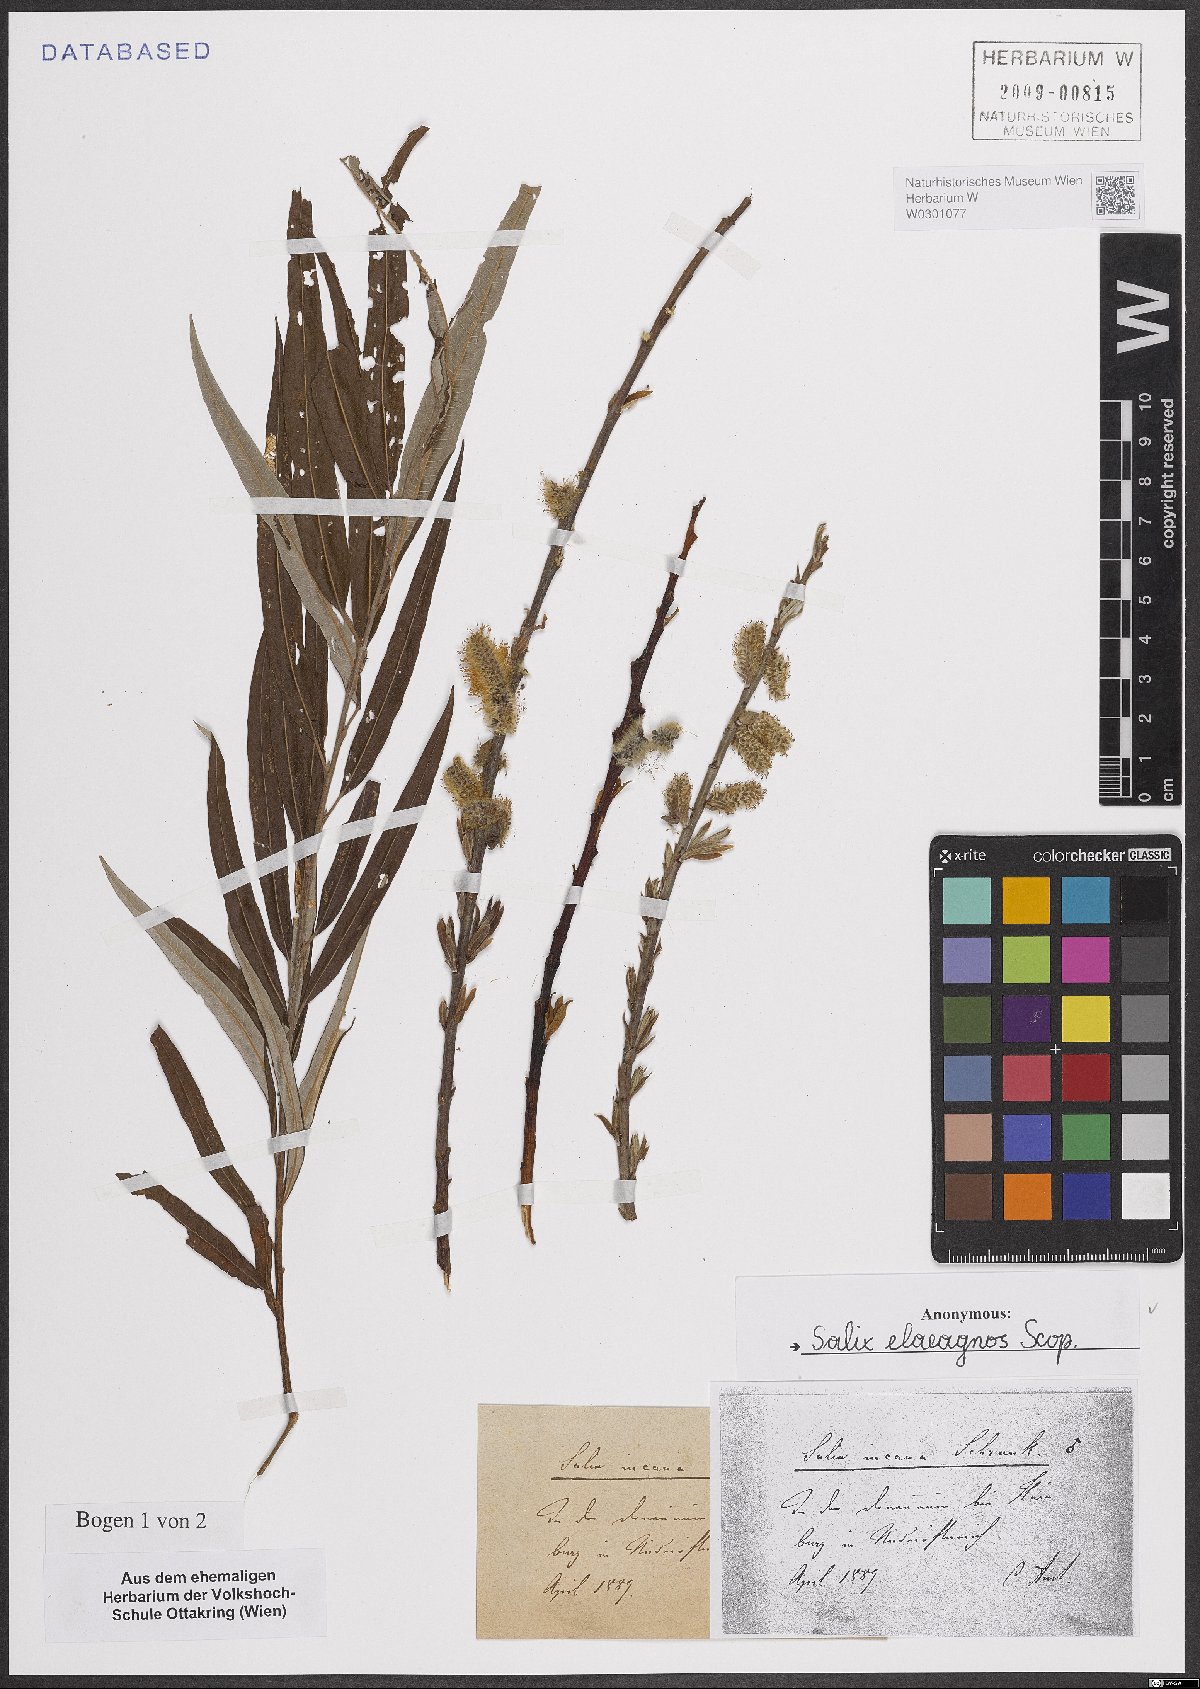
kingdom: Plantae
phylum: Tracheophyta
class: Magnoliopsida
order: Malpighiales
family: Salicaceae
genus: Salix
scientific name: Salix eleagnos
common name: Elaeagnus willow
